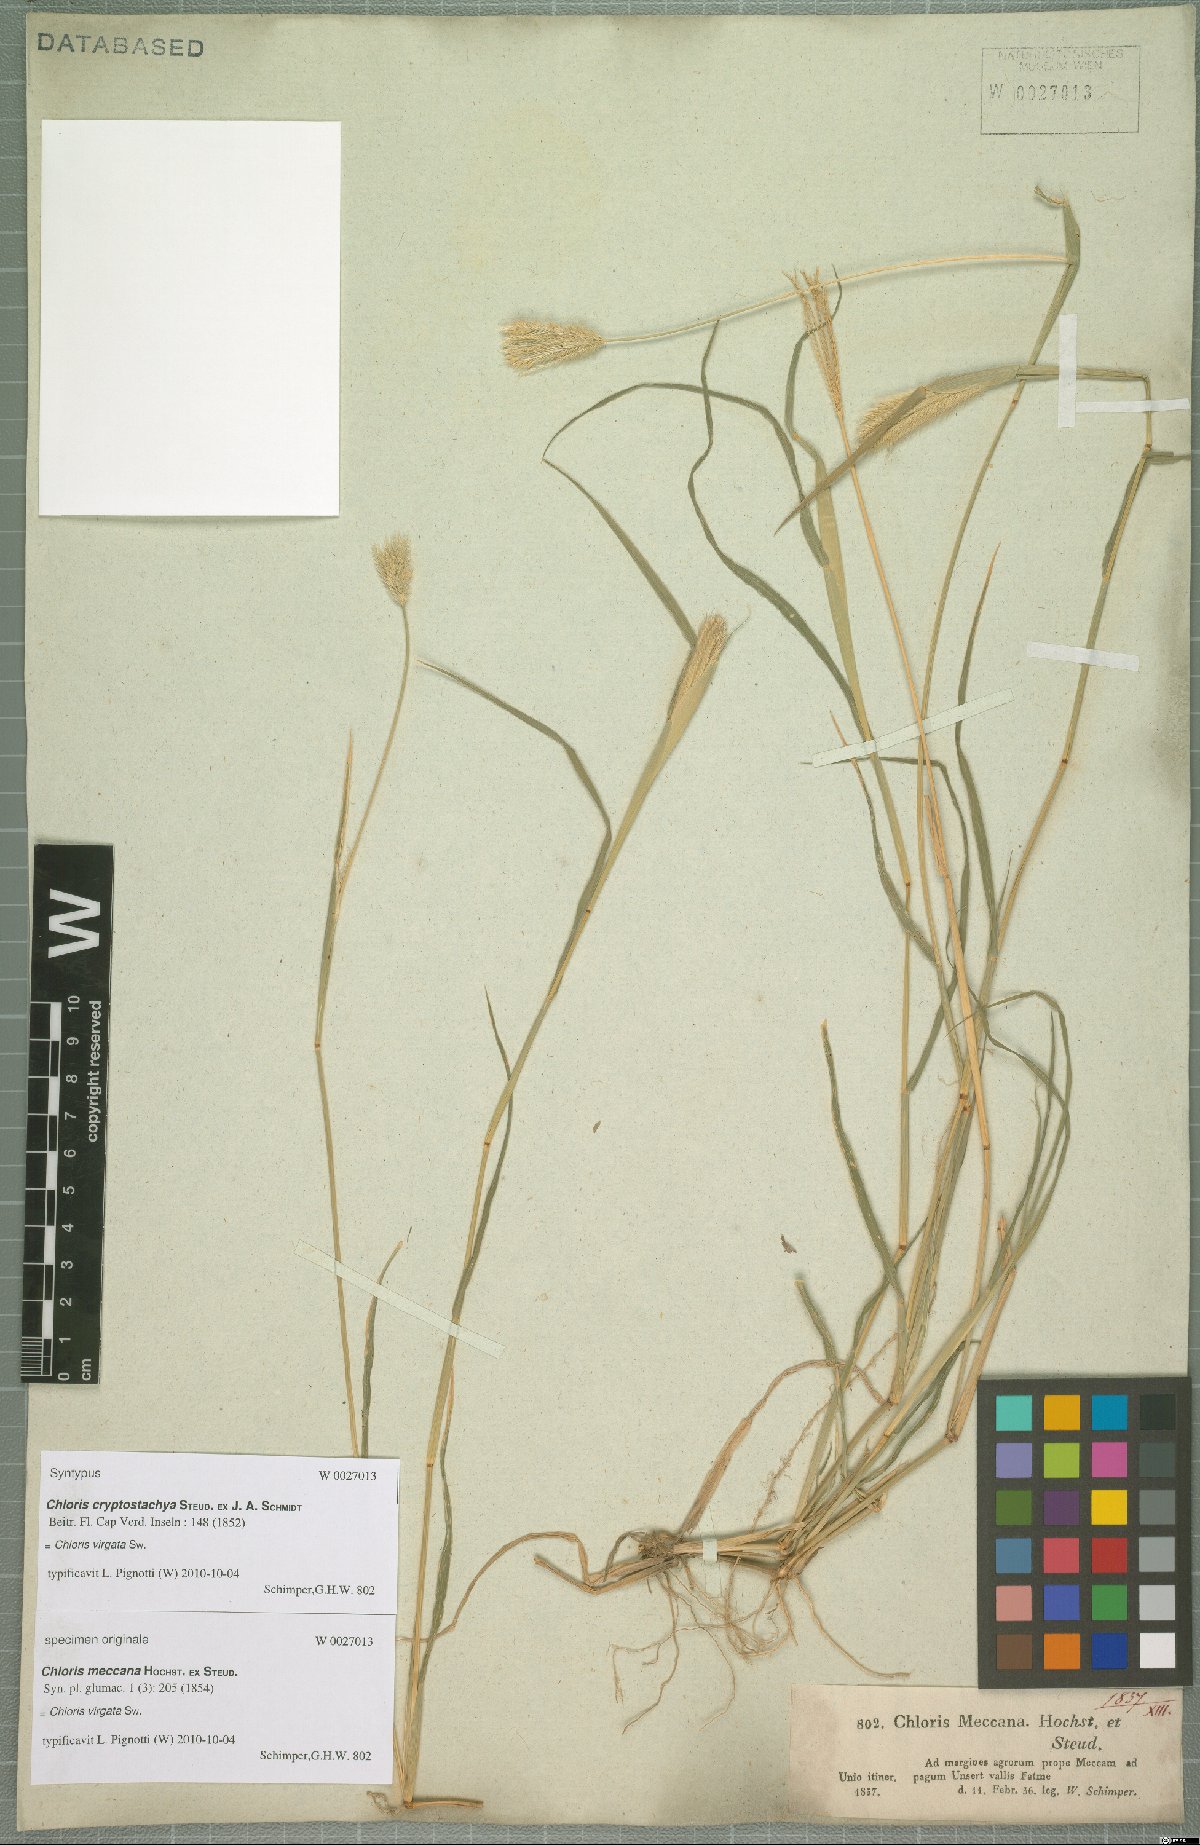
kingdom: Plantae
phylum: Tracheophyta
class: Liliopsida
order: Poales
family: Poaceae
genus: Chloris
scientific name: Chloris virgata
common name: Feathery rhodes-grass
